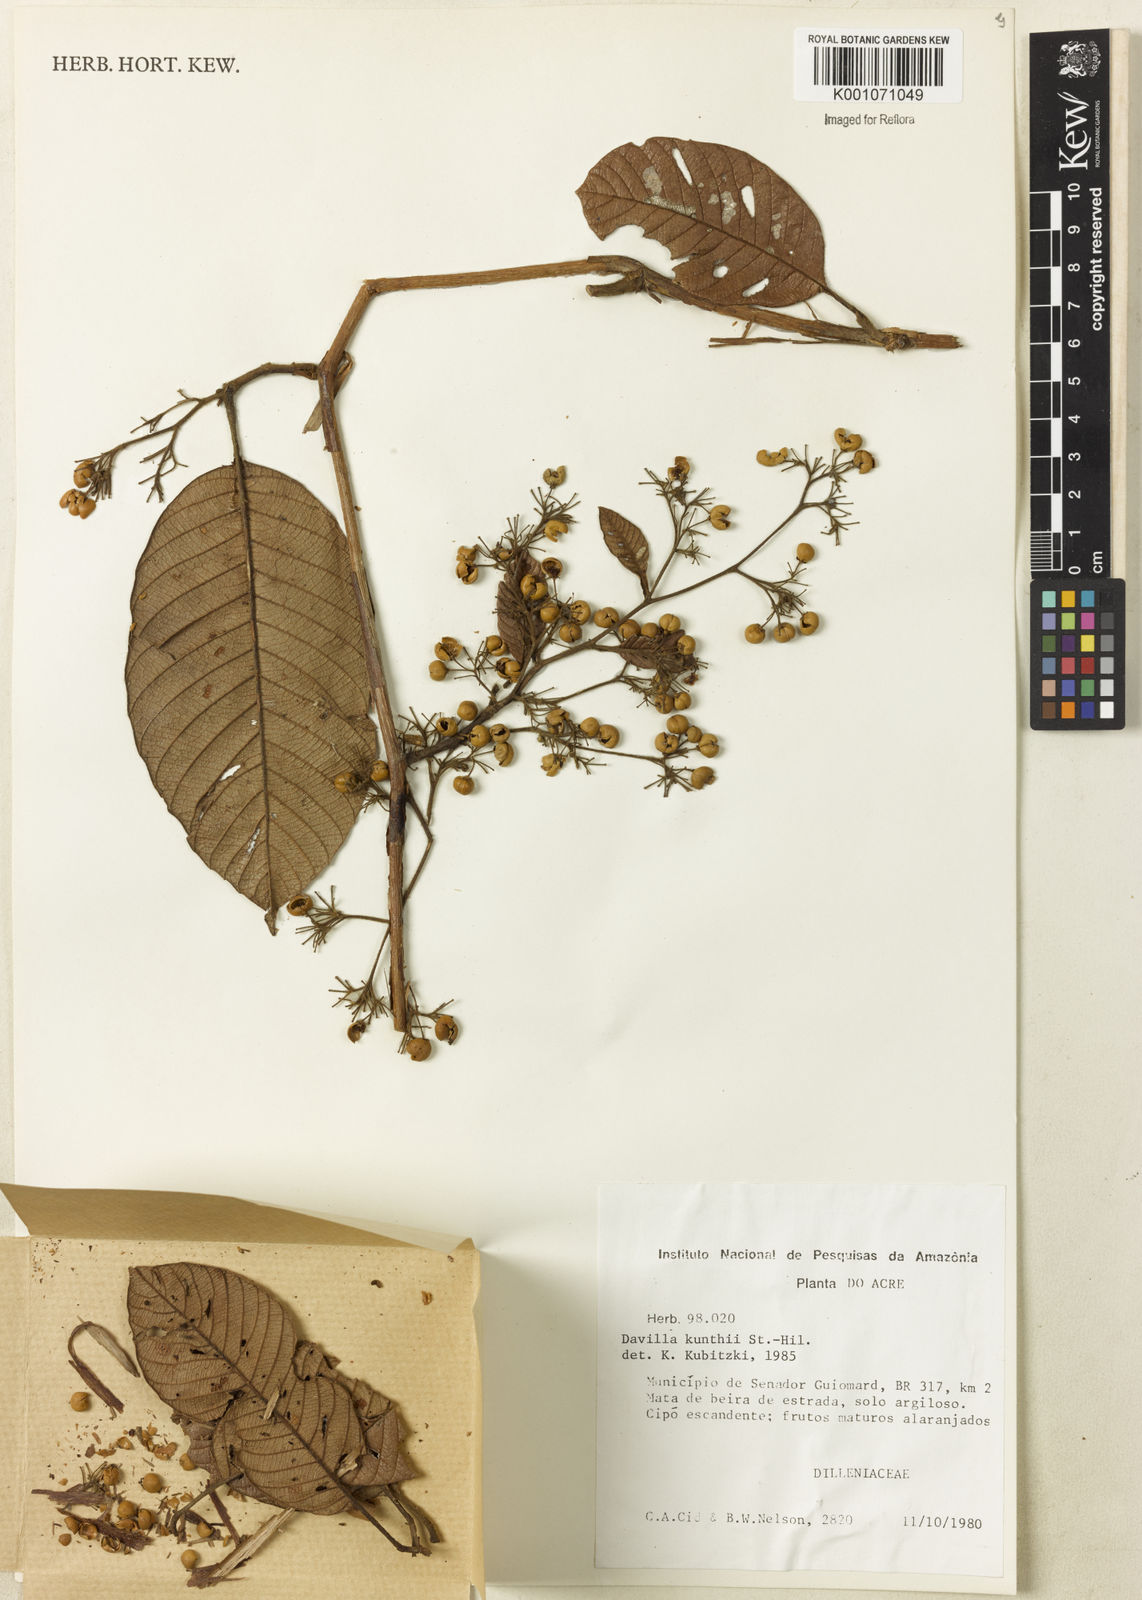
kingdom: Plantae
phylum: Tracheophyta
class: Magnoliopsida
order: Dilleniales
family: Dilleniaceae
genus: Davilla
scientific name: Davilla kunthii
